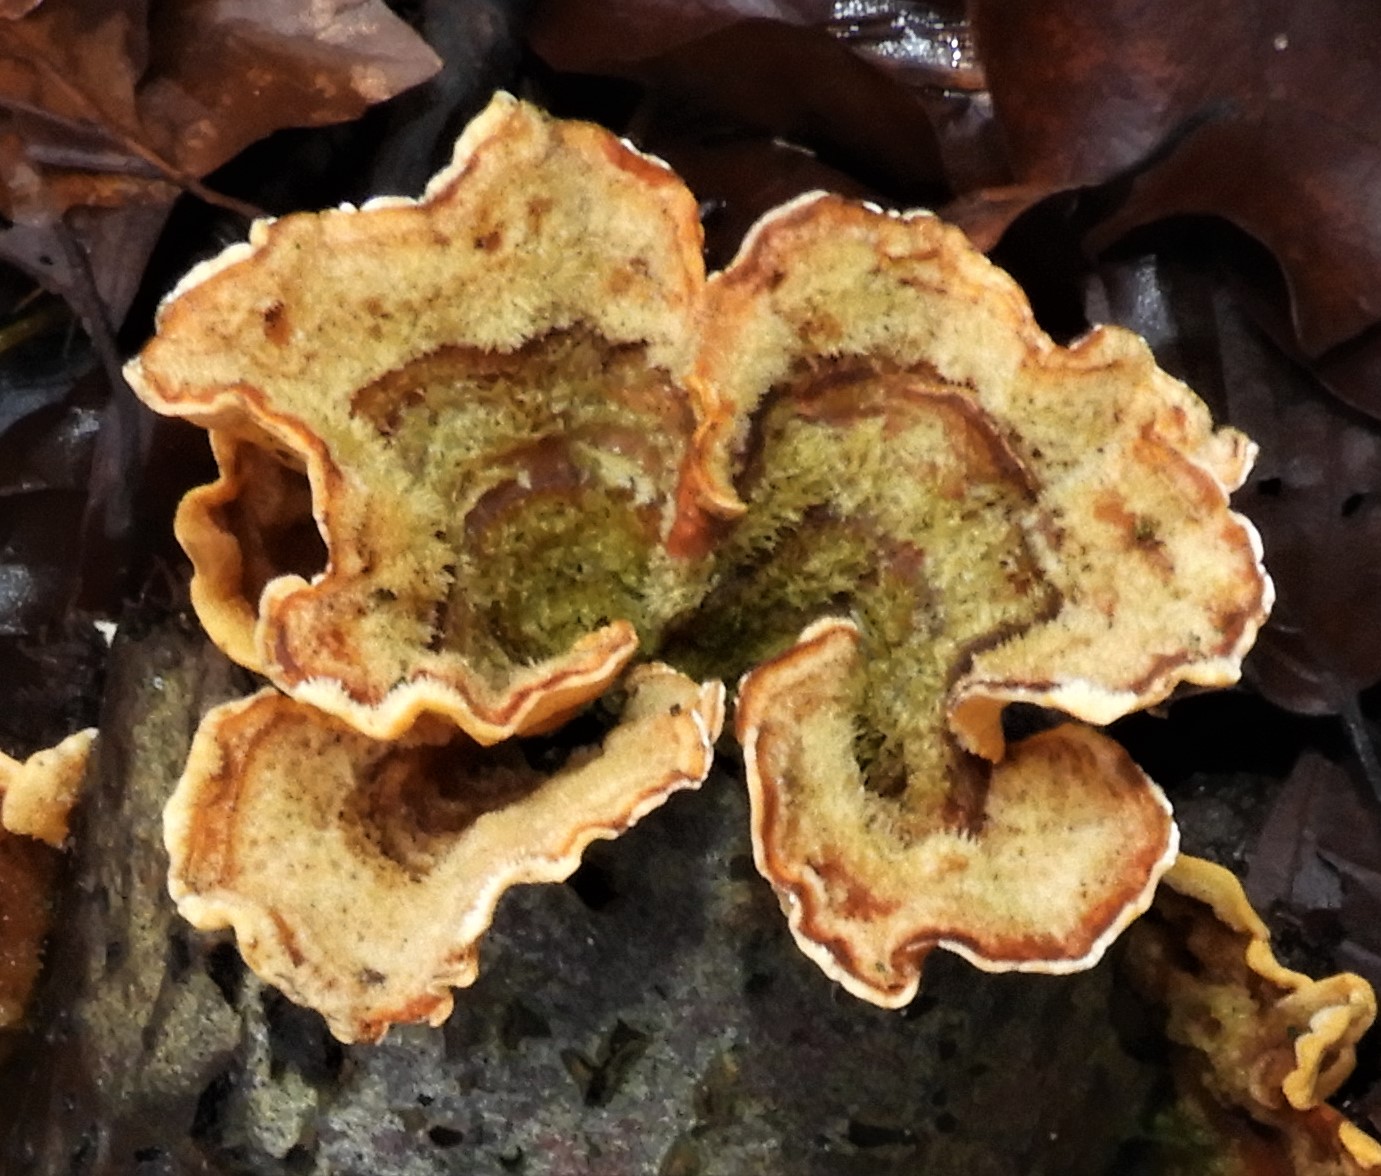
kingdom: Fungi
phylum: Basidiomycota
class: Agaricomycetes
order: Russulales
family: Stereaceae
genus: Stereum
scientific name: Stereum hirsutum
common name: håret lædersvamp
